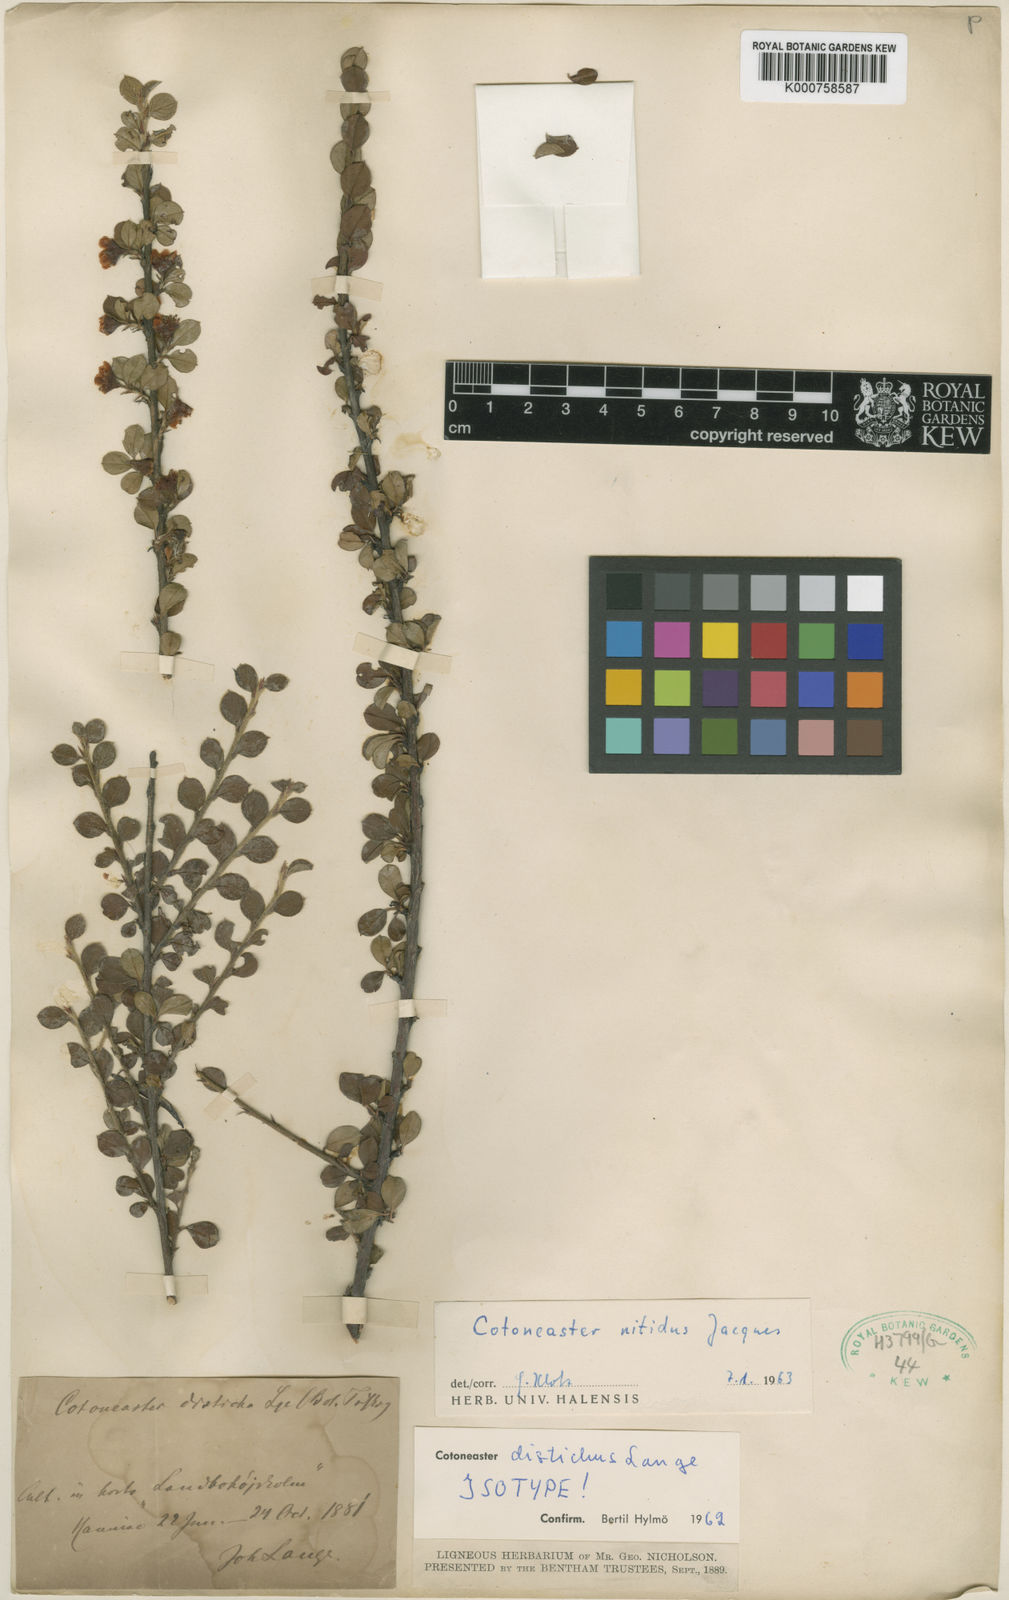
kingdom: Plantae
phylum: Tracheophyta
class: Magnoliopsida
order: Rosales
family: Rosaceae
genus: Cotoneaster
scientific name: Cotoneaster nitidus
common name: Distichous cotoneaster
